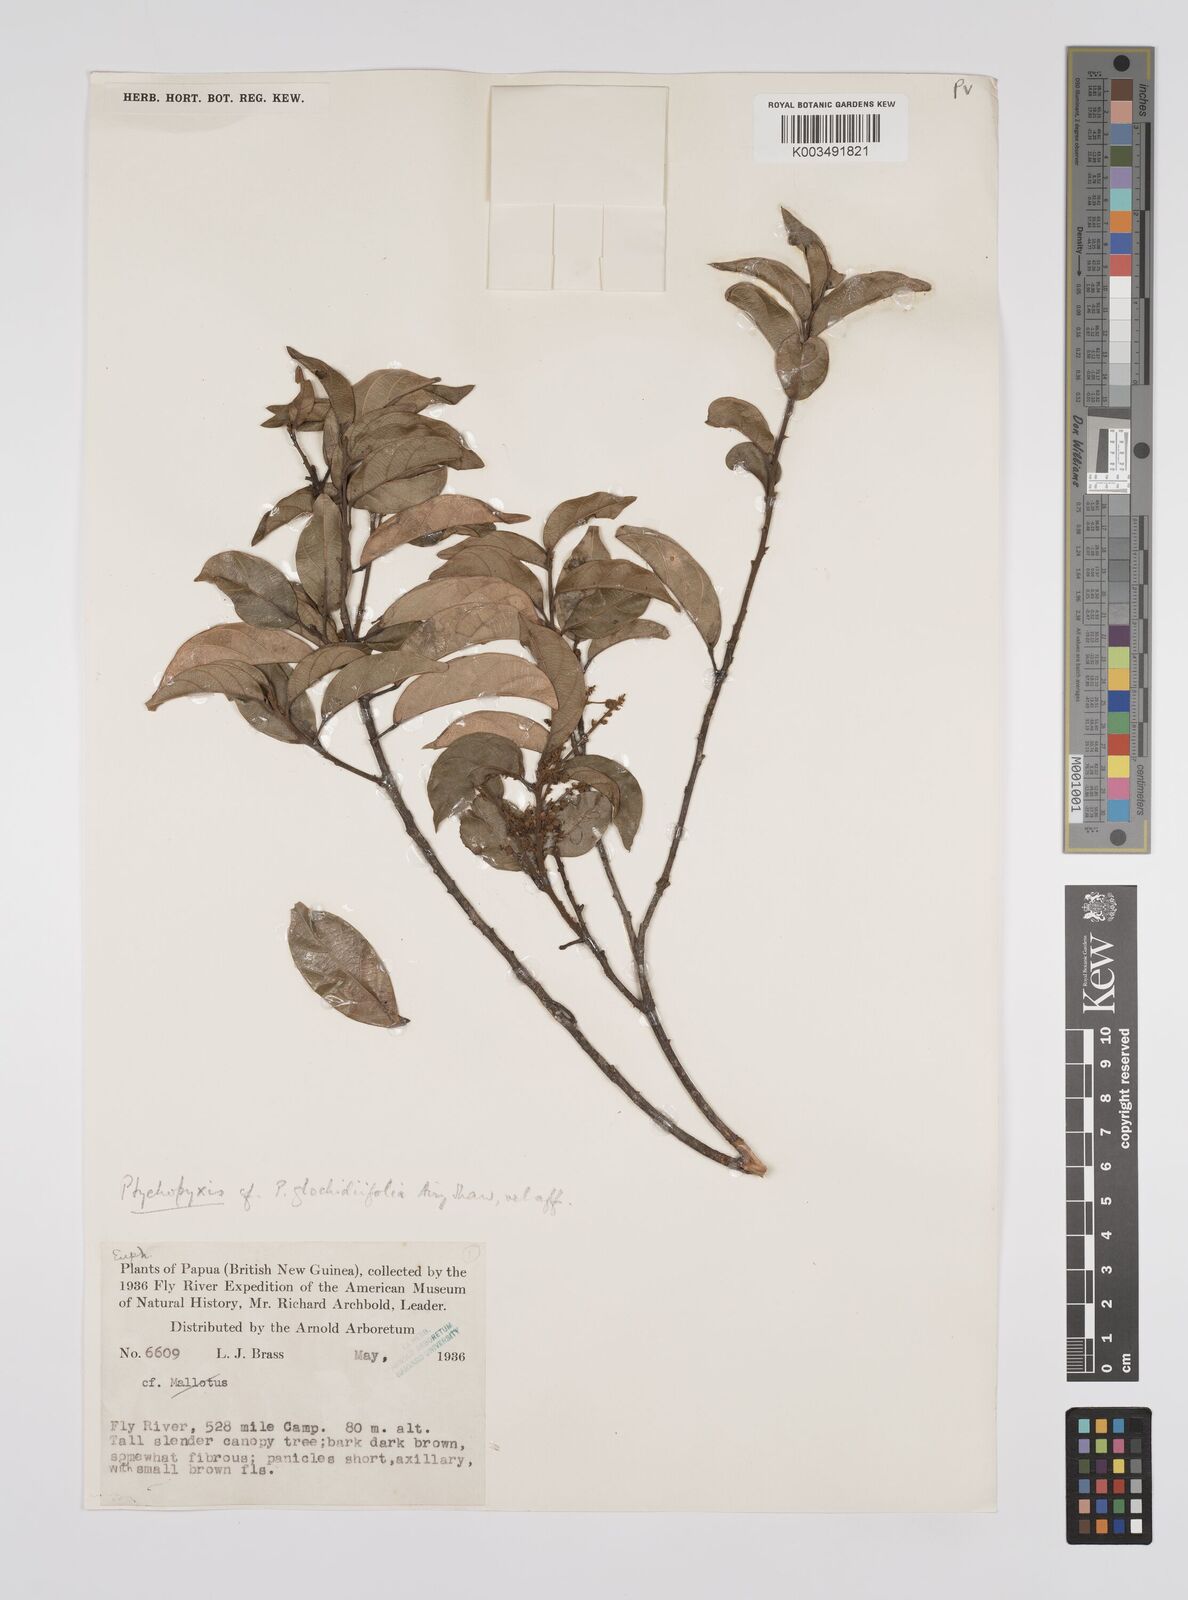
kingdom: Plantae
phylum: Tracheophyta
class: Magnoliopsida
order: Malpighiales
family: Euphorbiaceae
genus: Ptychopyxis
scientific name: Ptychopyxis glochidiifolia
